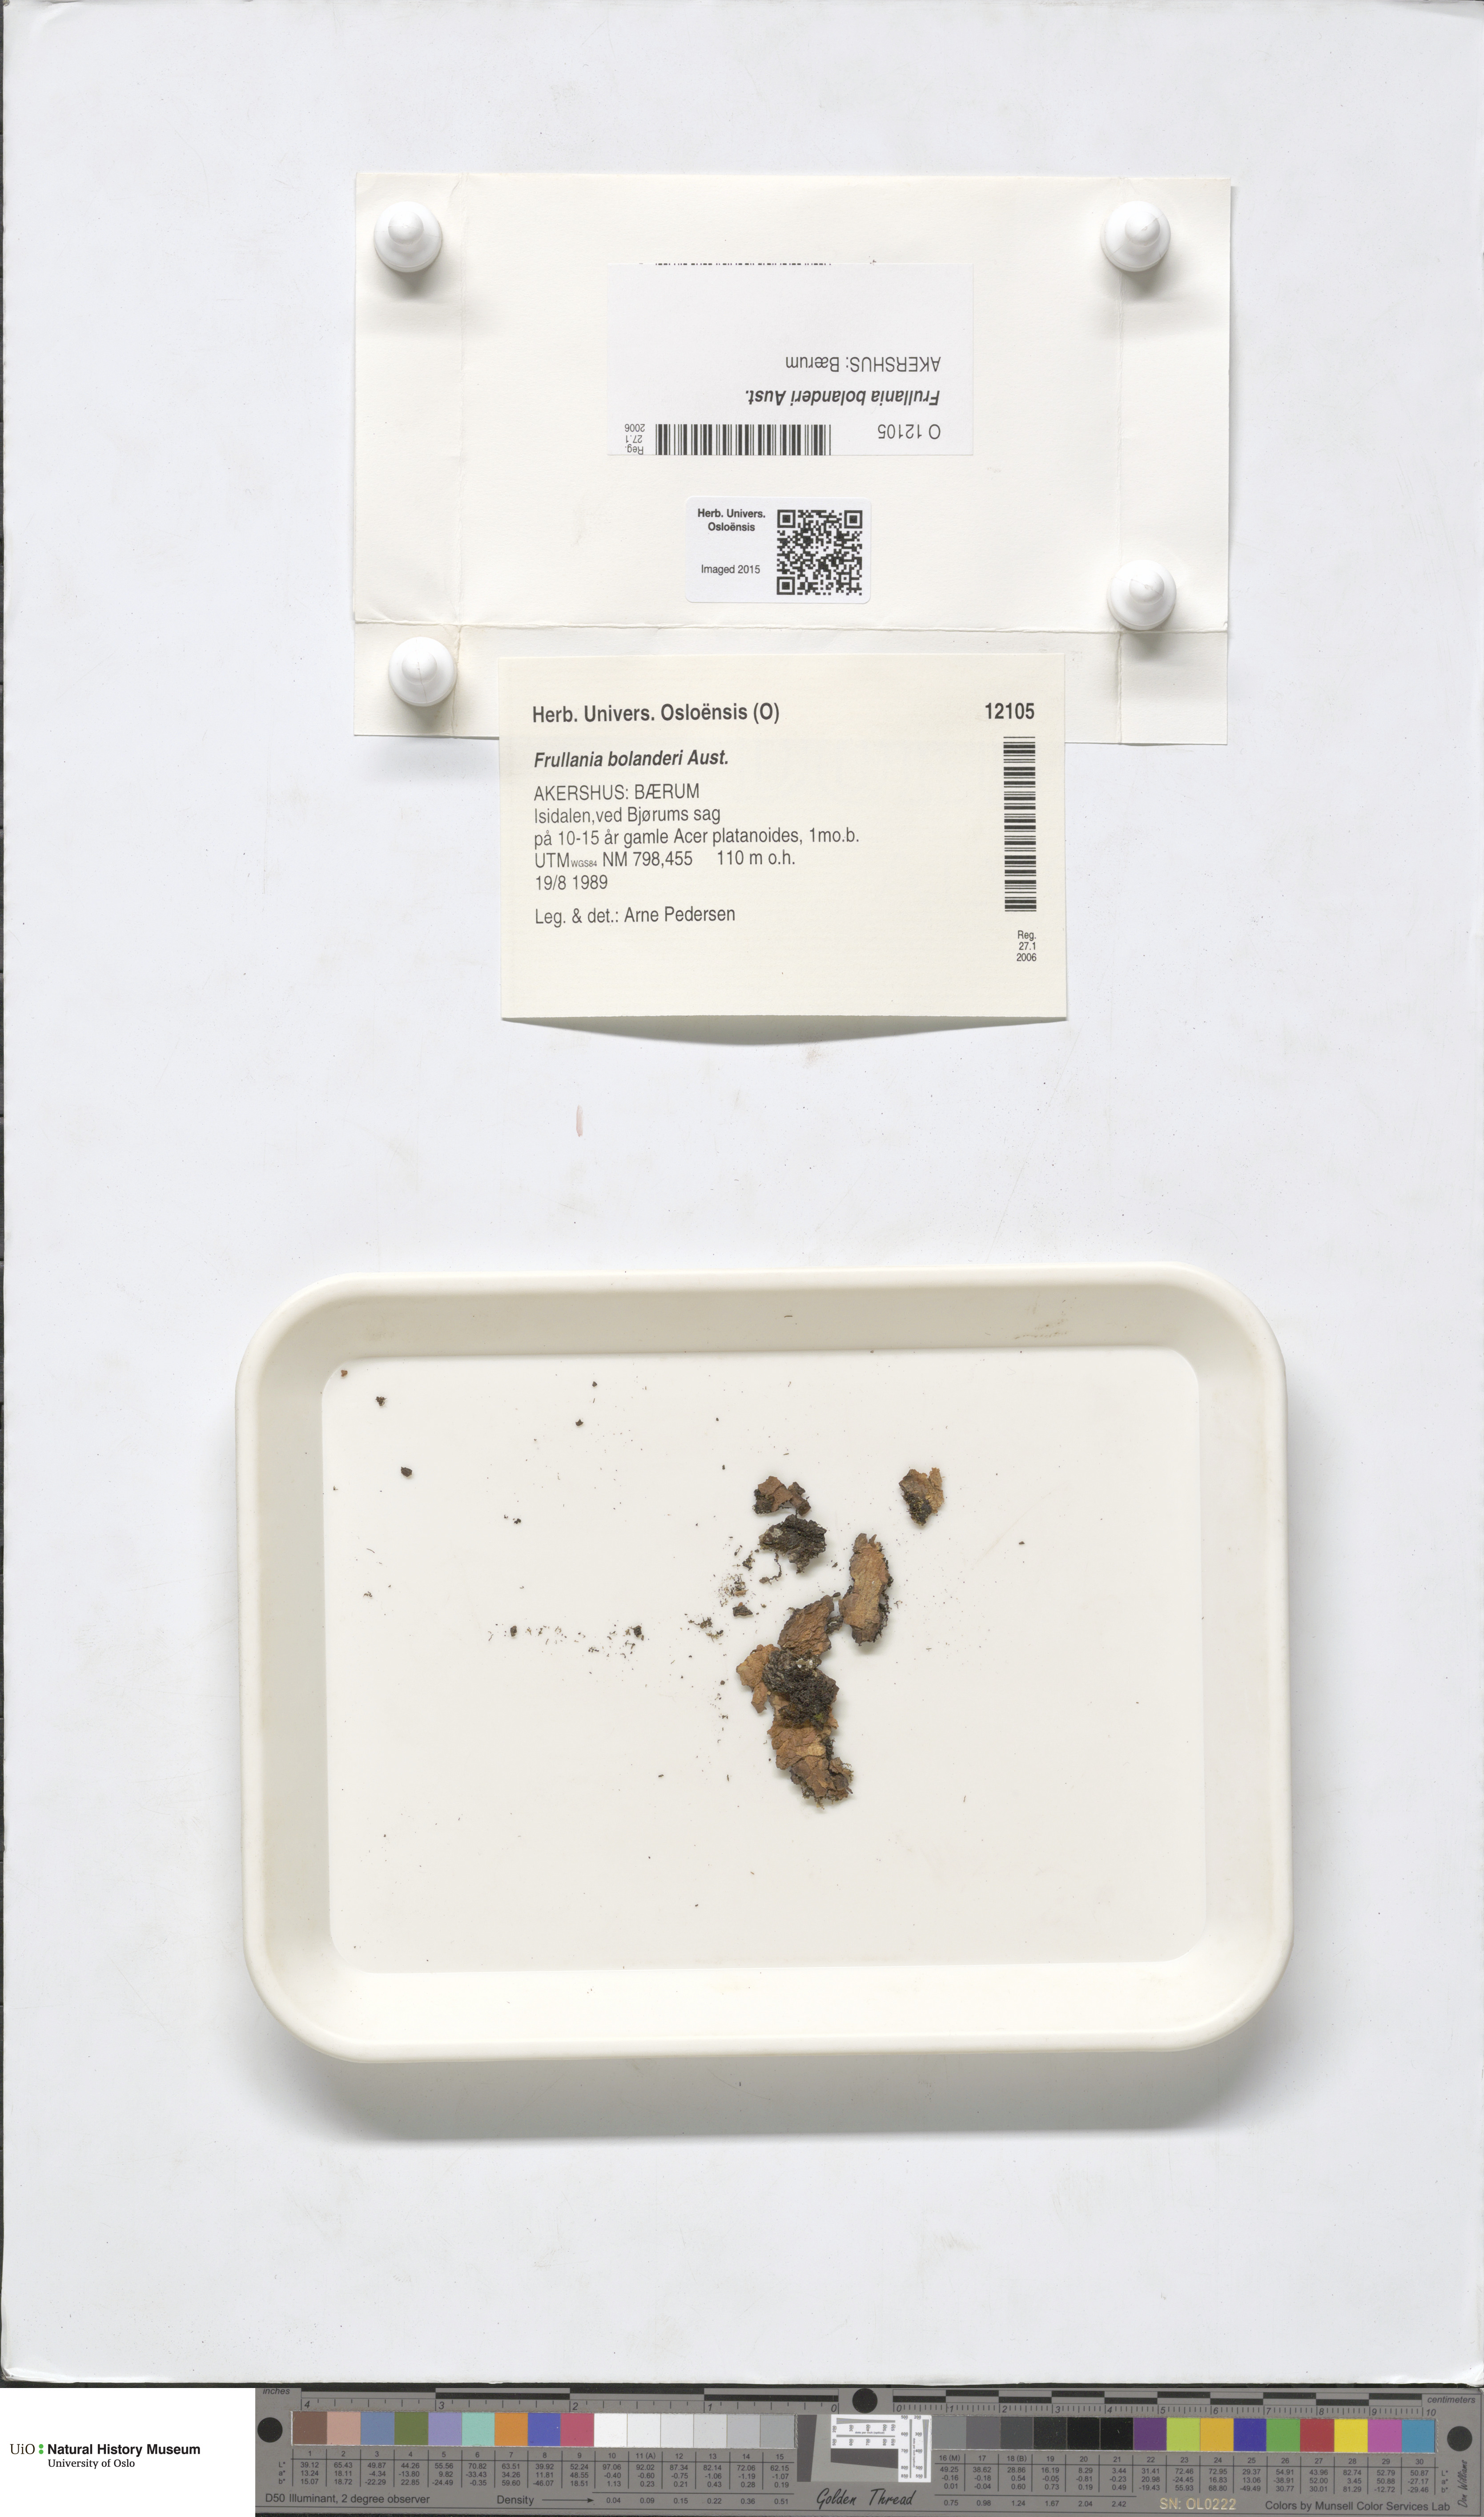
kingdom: Plantae
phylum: Marchantiophyta
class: Jungermanniopsida
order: Porellales
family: Frullaniaceae
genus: Frullania
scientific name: Frullania bolanderi
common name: Bolander s scalewort
